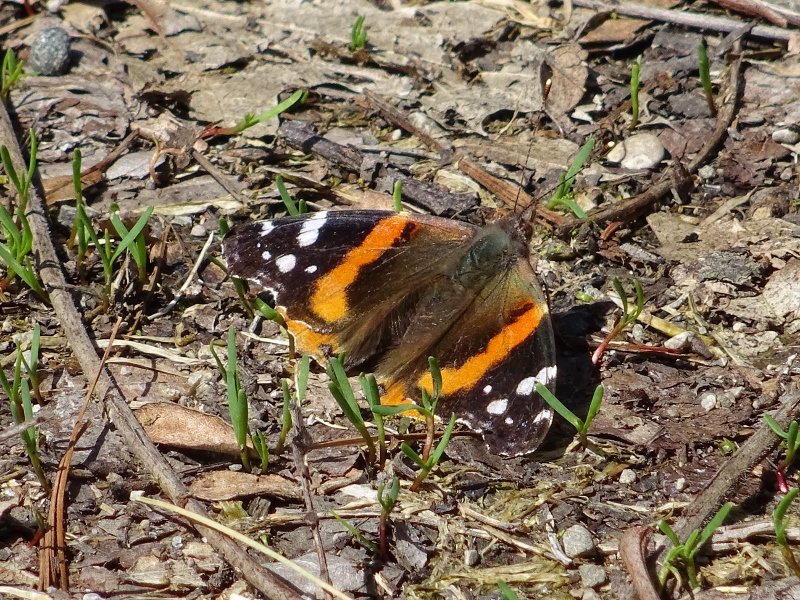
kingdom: Animalia
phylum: Arthropoda
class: Insecta
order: Lepidoptera
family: Nymphalidae
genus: Vanessa
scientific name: Vanessa atalanta
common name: Red Admiral
